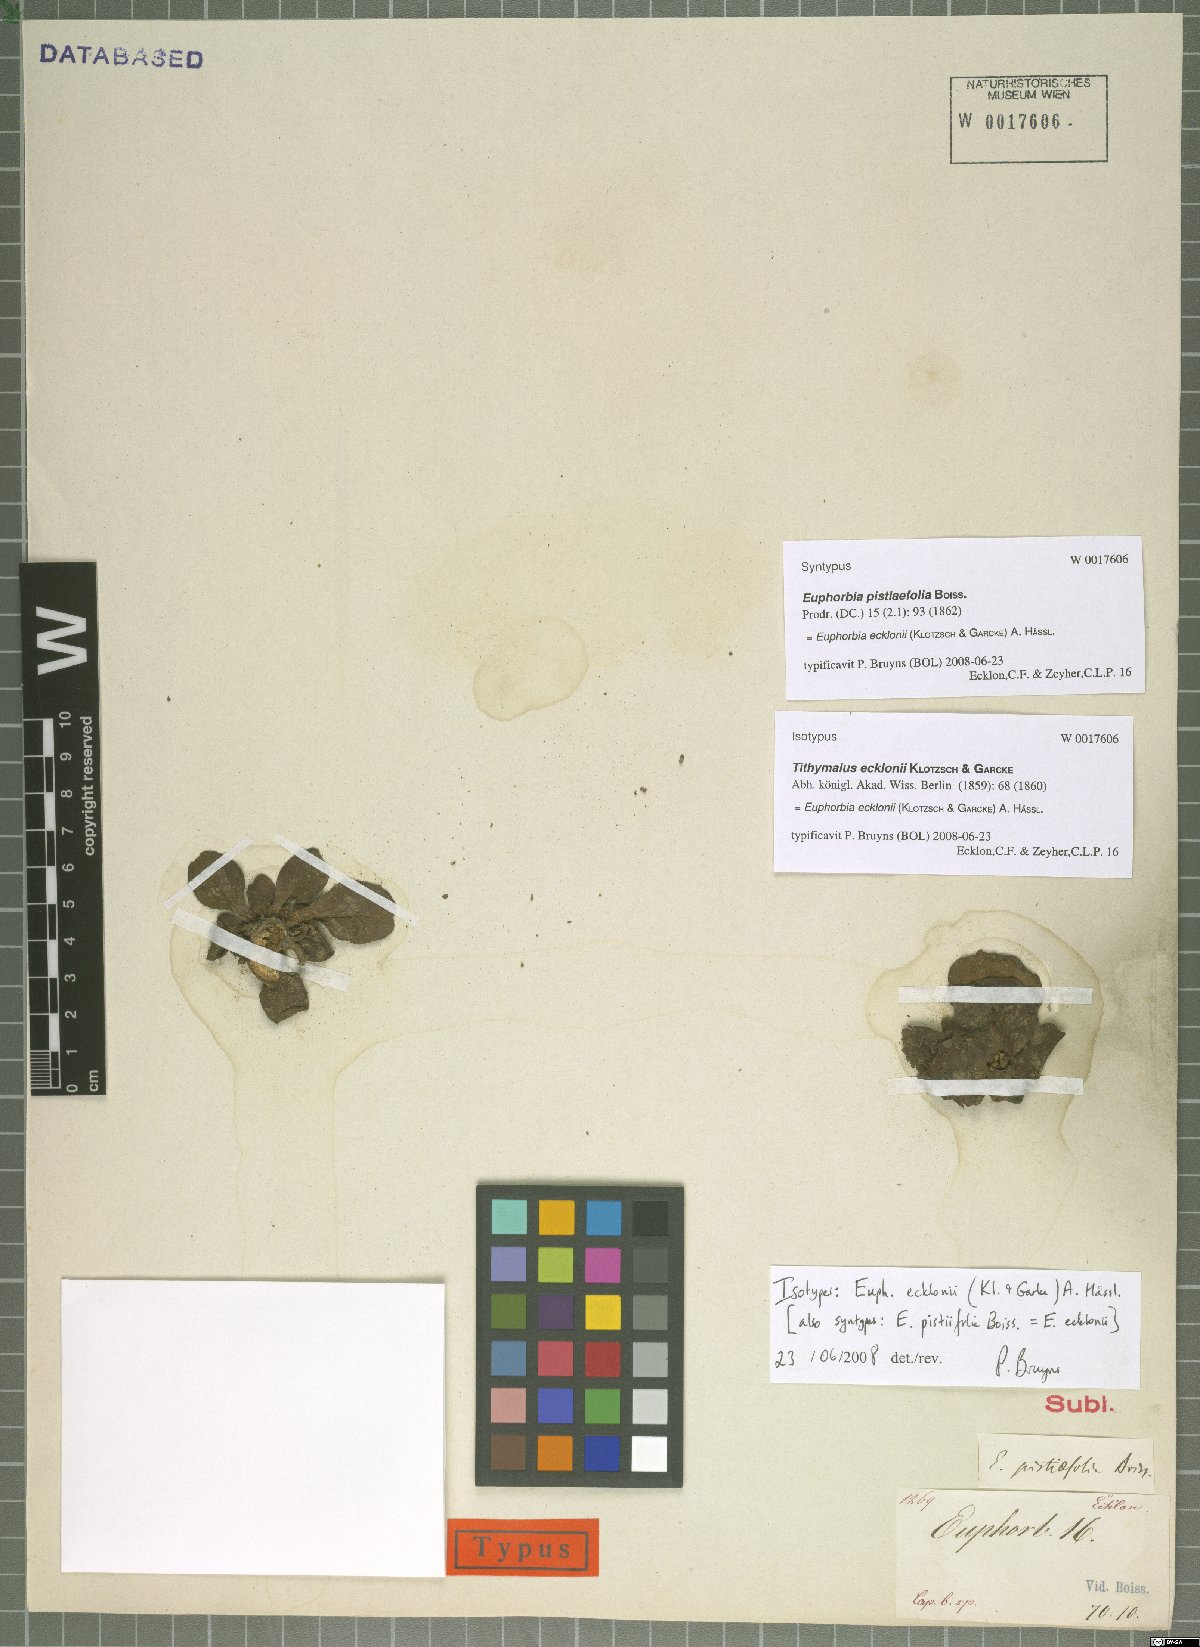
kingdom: Plantae
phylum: Tracheophyta
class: Magnoliopsida
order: Malpighiales
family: Euphorbiaceae
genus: Euphorbia
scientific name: Euphorbia ecklonii
